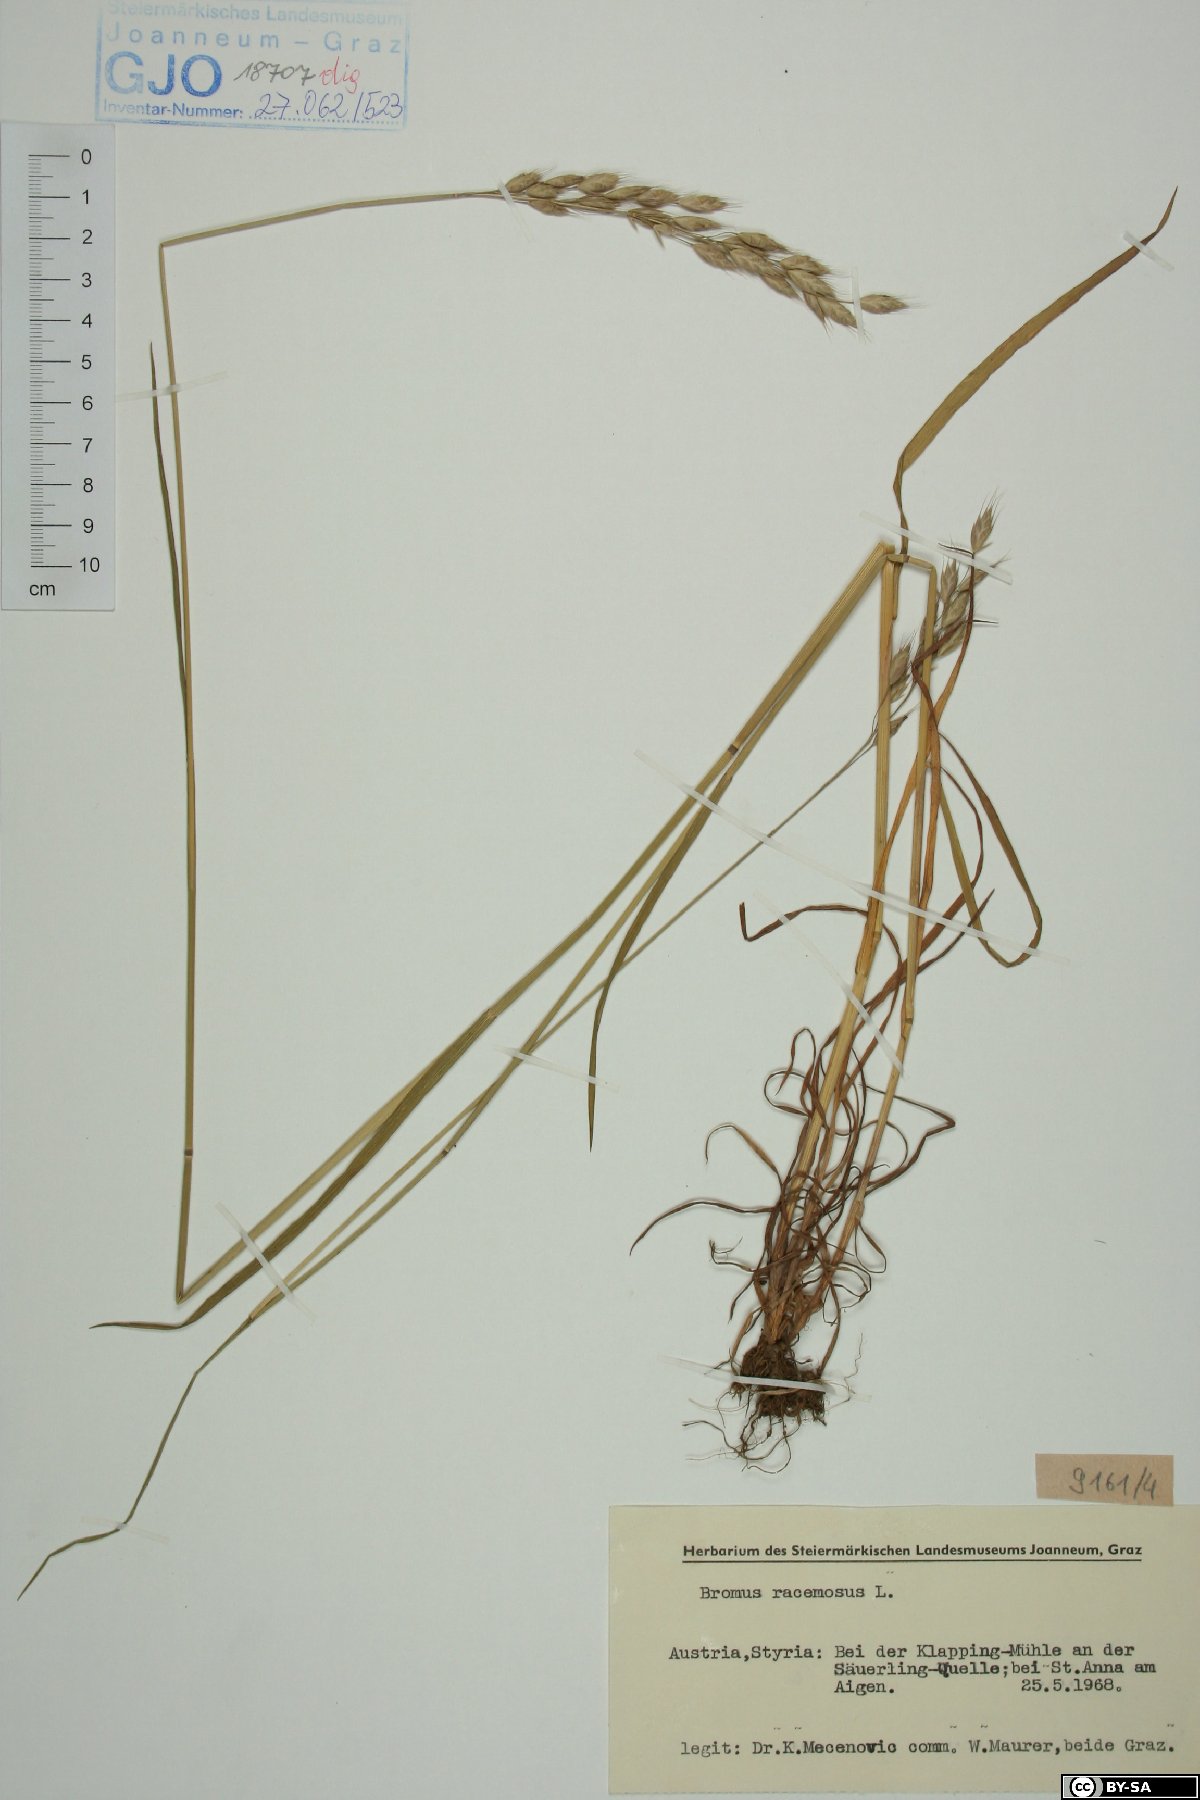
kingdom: Plantae
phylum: Tracheophyta
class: Liliopsida
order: Poales
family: Poaceae
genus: Bromus
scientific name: Bromus racemosus
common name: Bald brome
